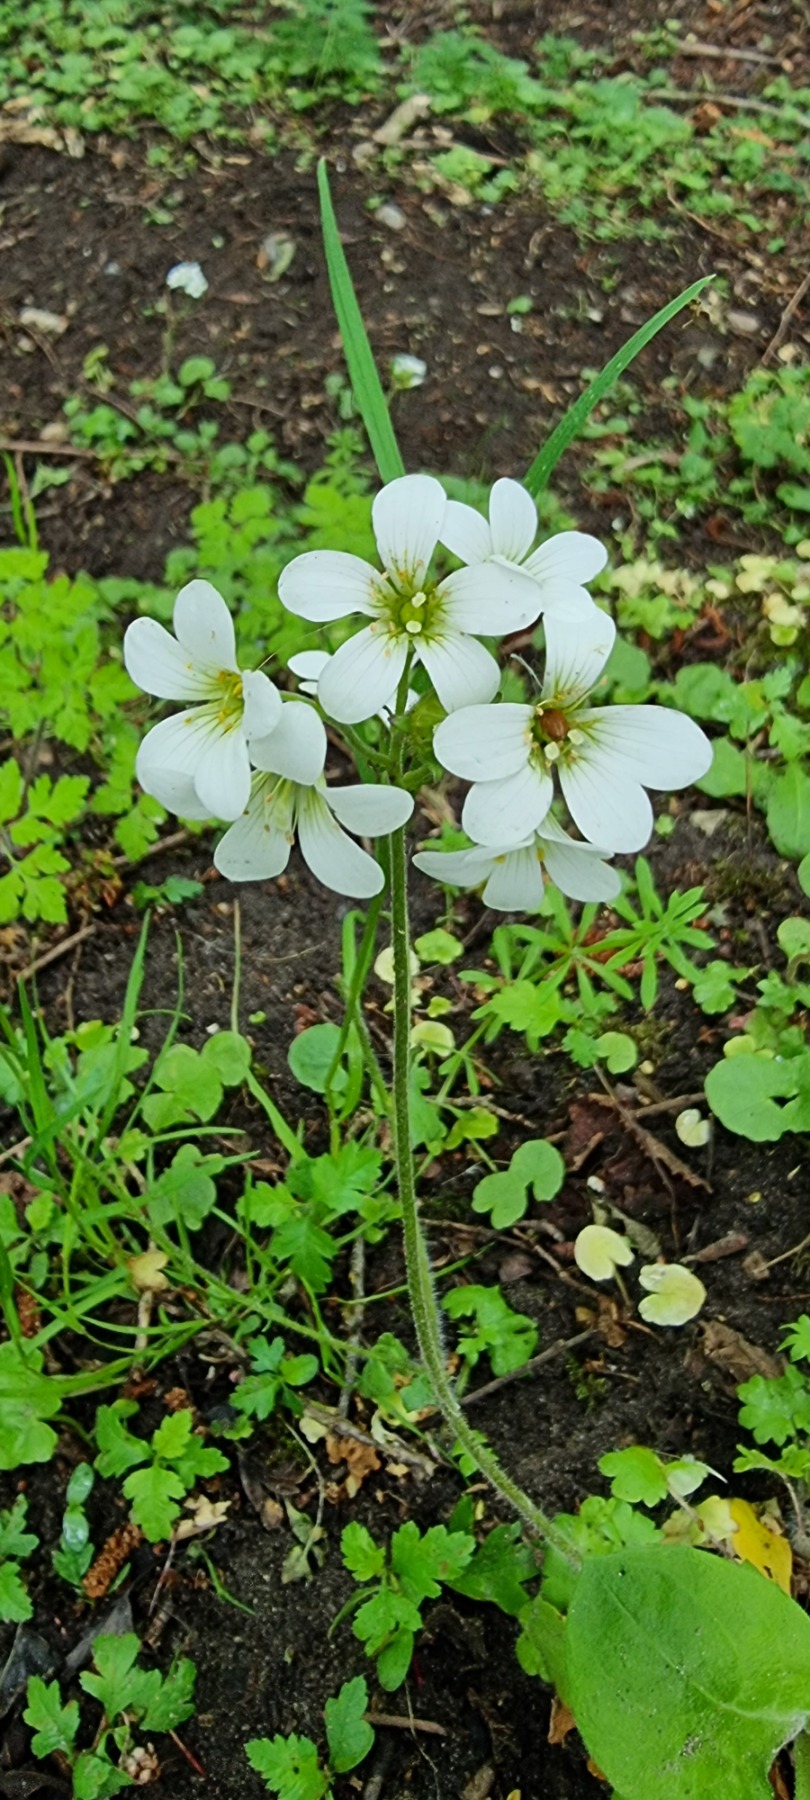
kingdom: Plantae
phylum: Tracheophyta
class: Magnoliopsida
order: Saxifragales
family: Saxifragaceae
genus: Saxifraga
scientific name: Saxifraga granulata
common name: Kornet stenbræk
